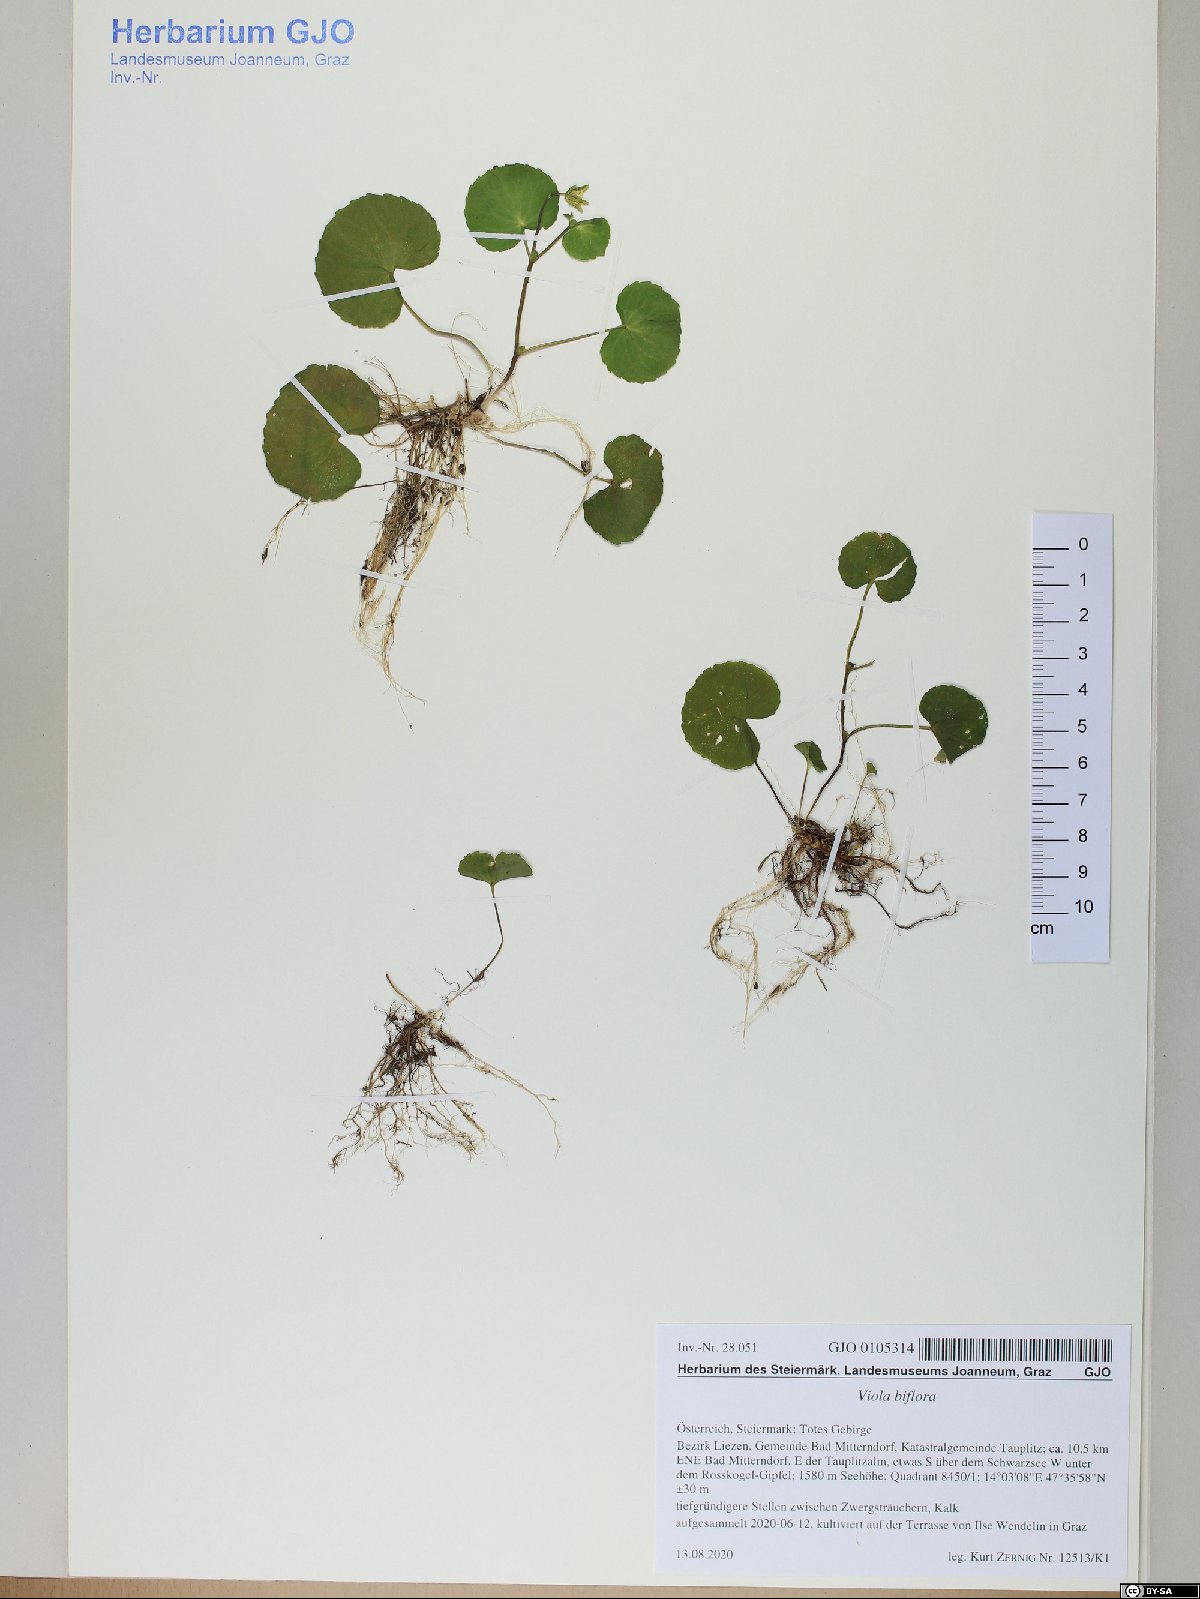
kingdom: Plantae
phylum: Tracheophyta
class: Magnoliopsida
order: Malpighiales
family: Violaceae
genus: Viola
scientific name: Viola biflora
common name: Alpine yellow violet
